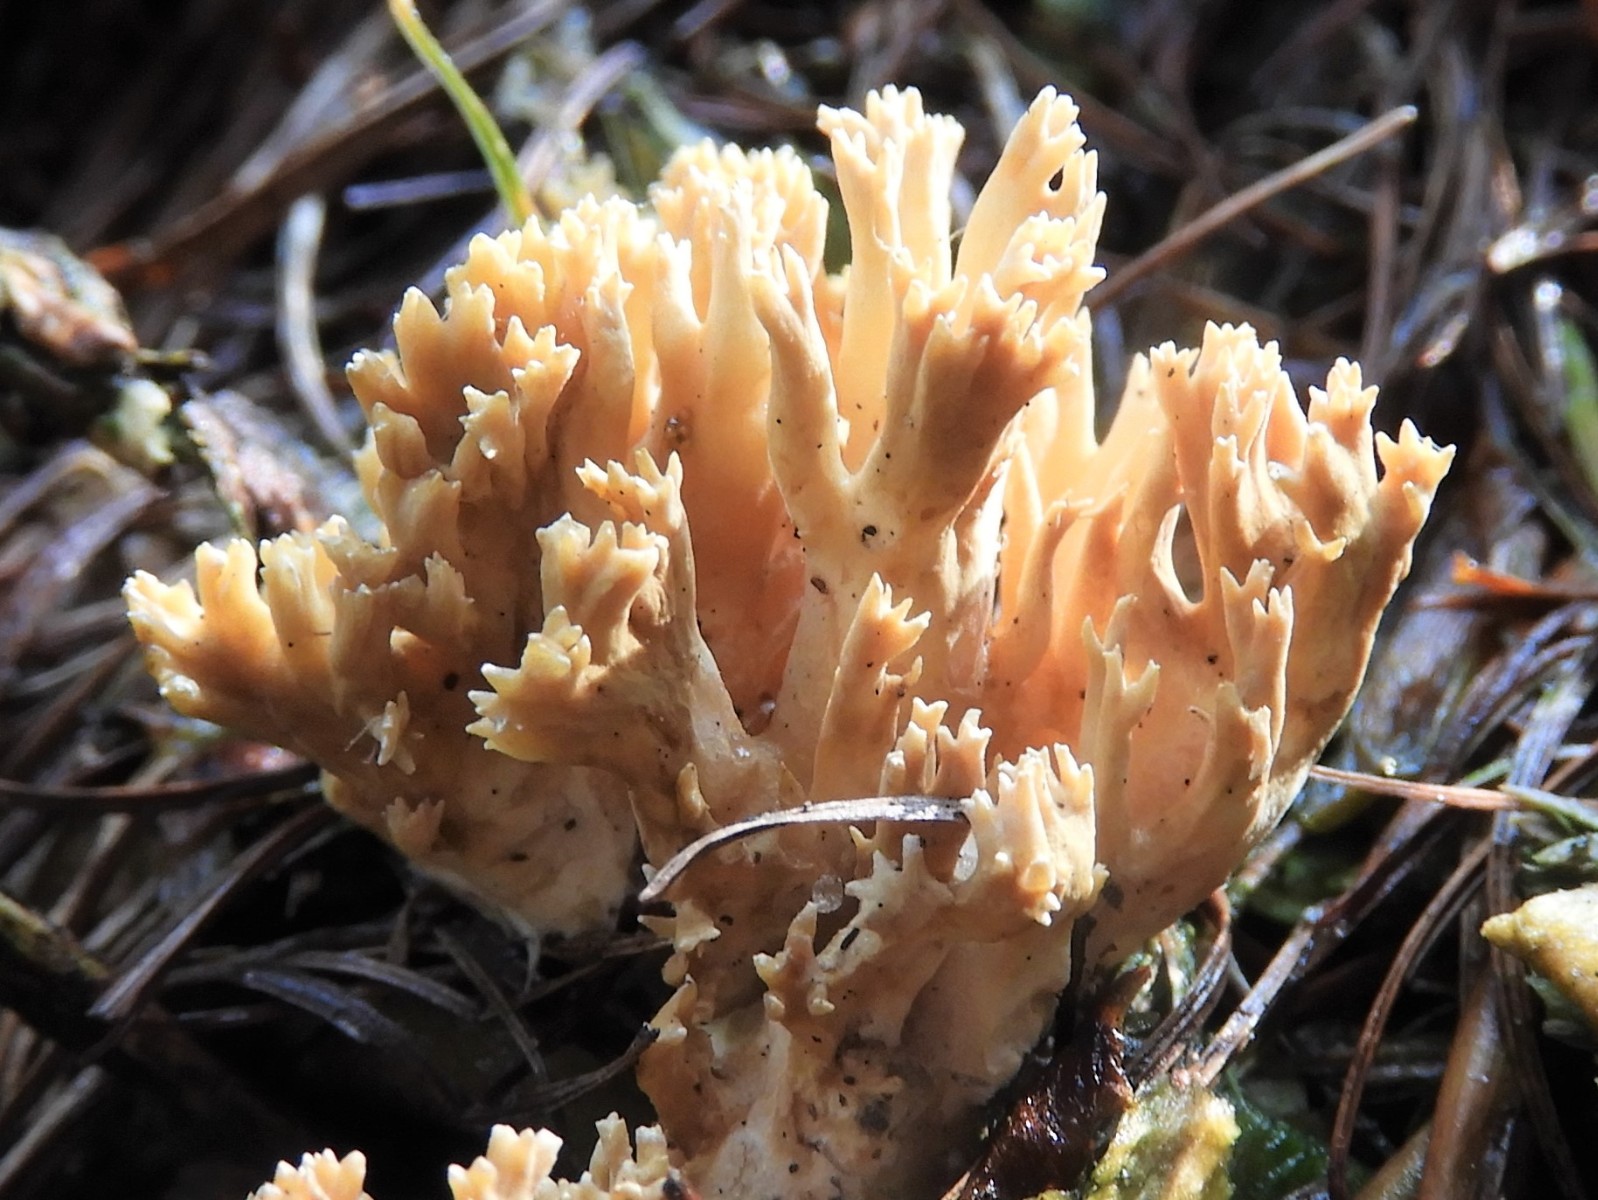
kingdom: Fungi
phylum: Basidiomycota
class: Agaricomycetes
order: Gomphales
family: Gomphaceae
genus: Phaeoclavulina
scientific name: Phaeoclavulina eumorpha
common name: gran-koralsvamp
